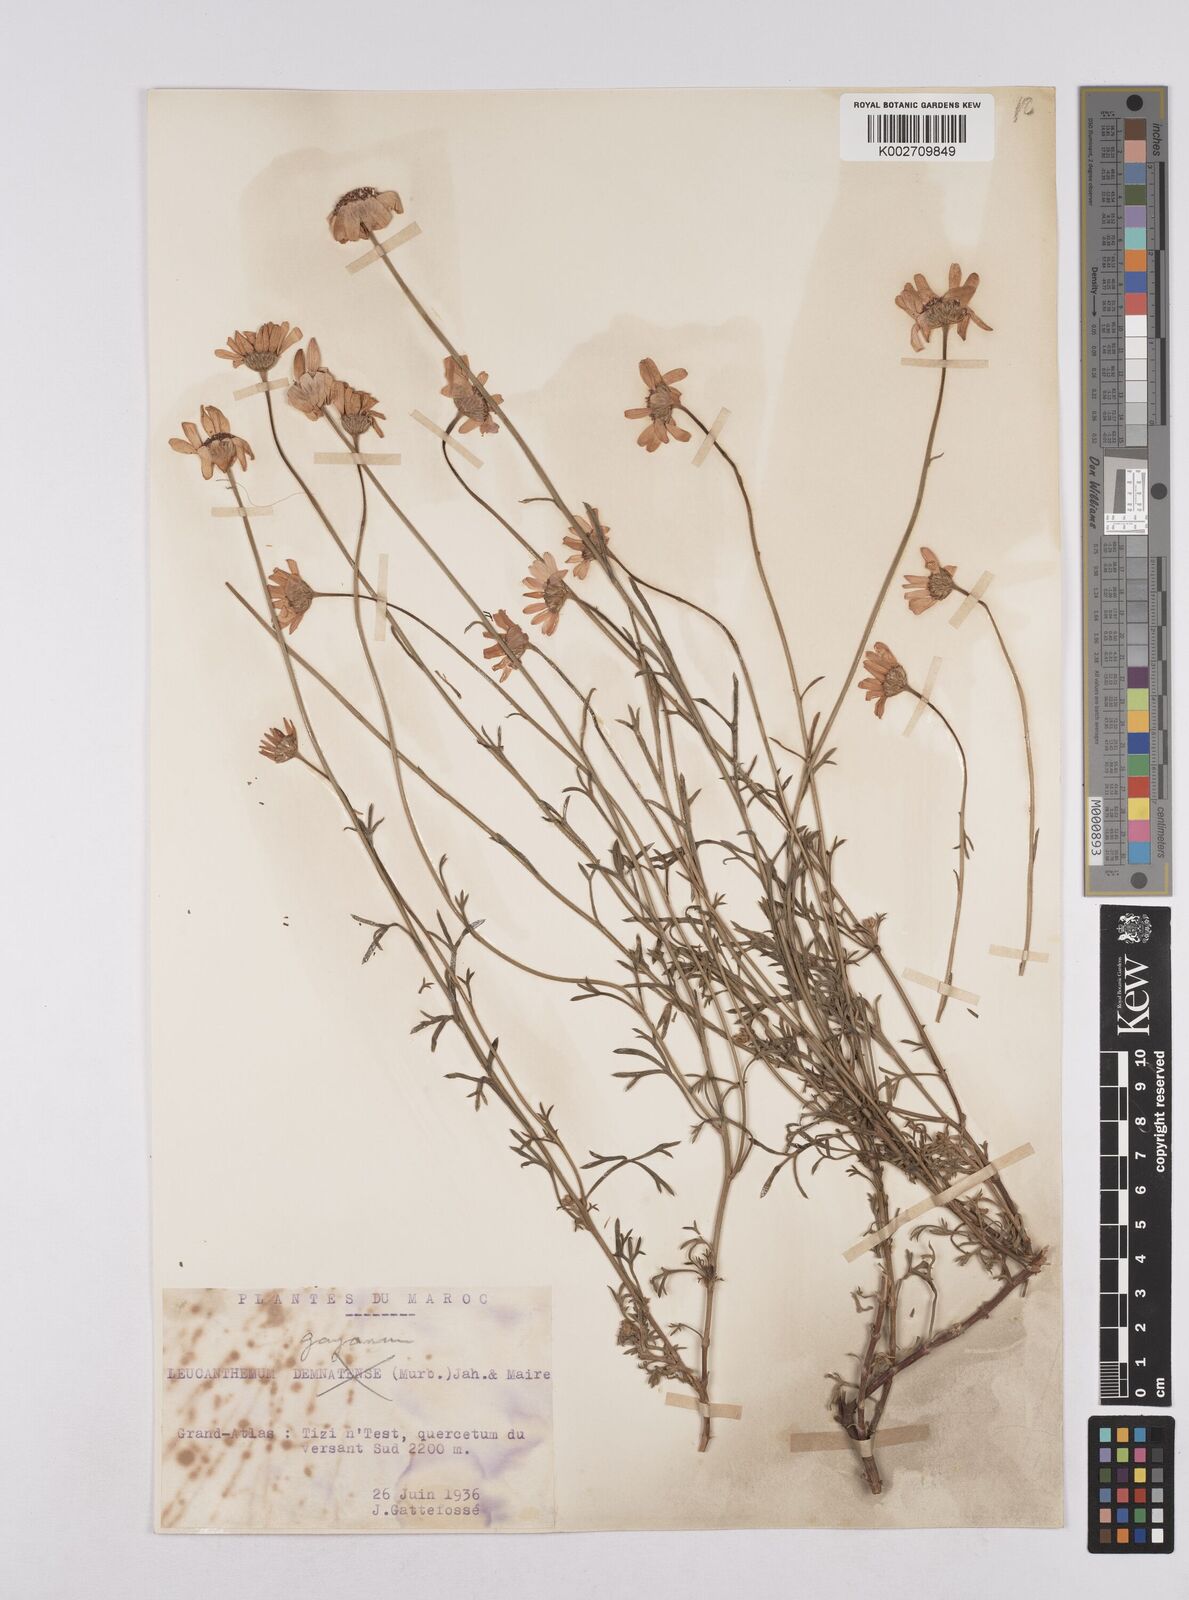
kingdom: Plantae
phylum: Tracheophyta
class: Magnoliopsida
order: Asterales
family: Asteraceae
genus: Rhodanthemum
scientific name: Rhodanthemum gayanum
